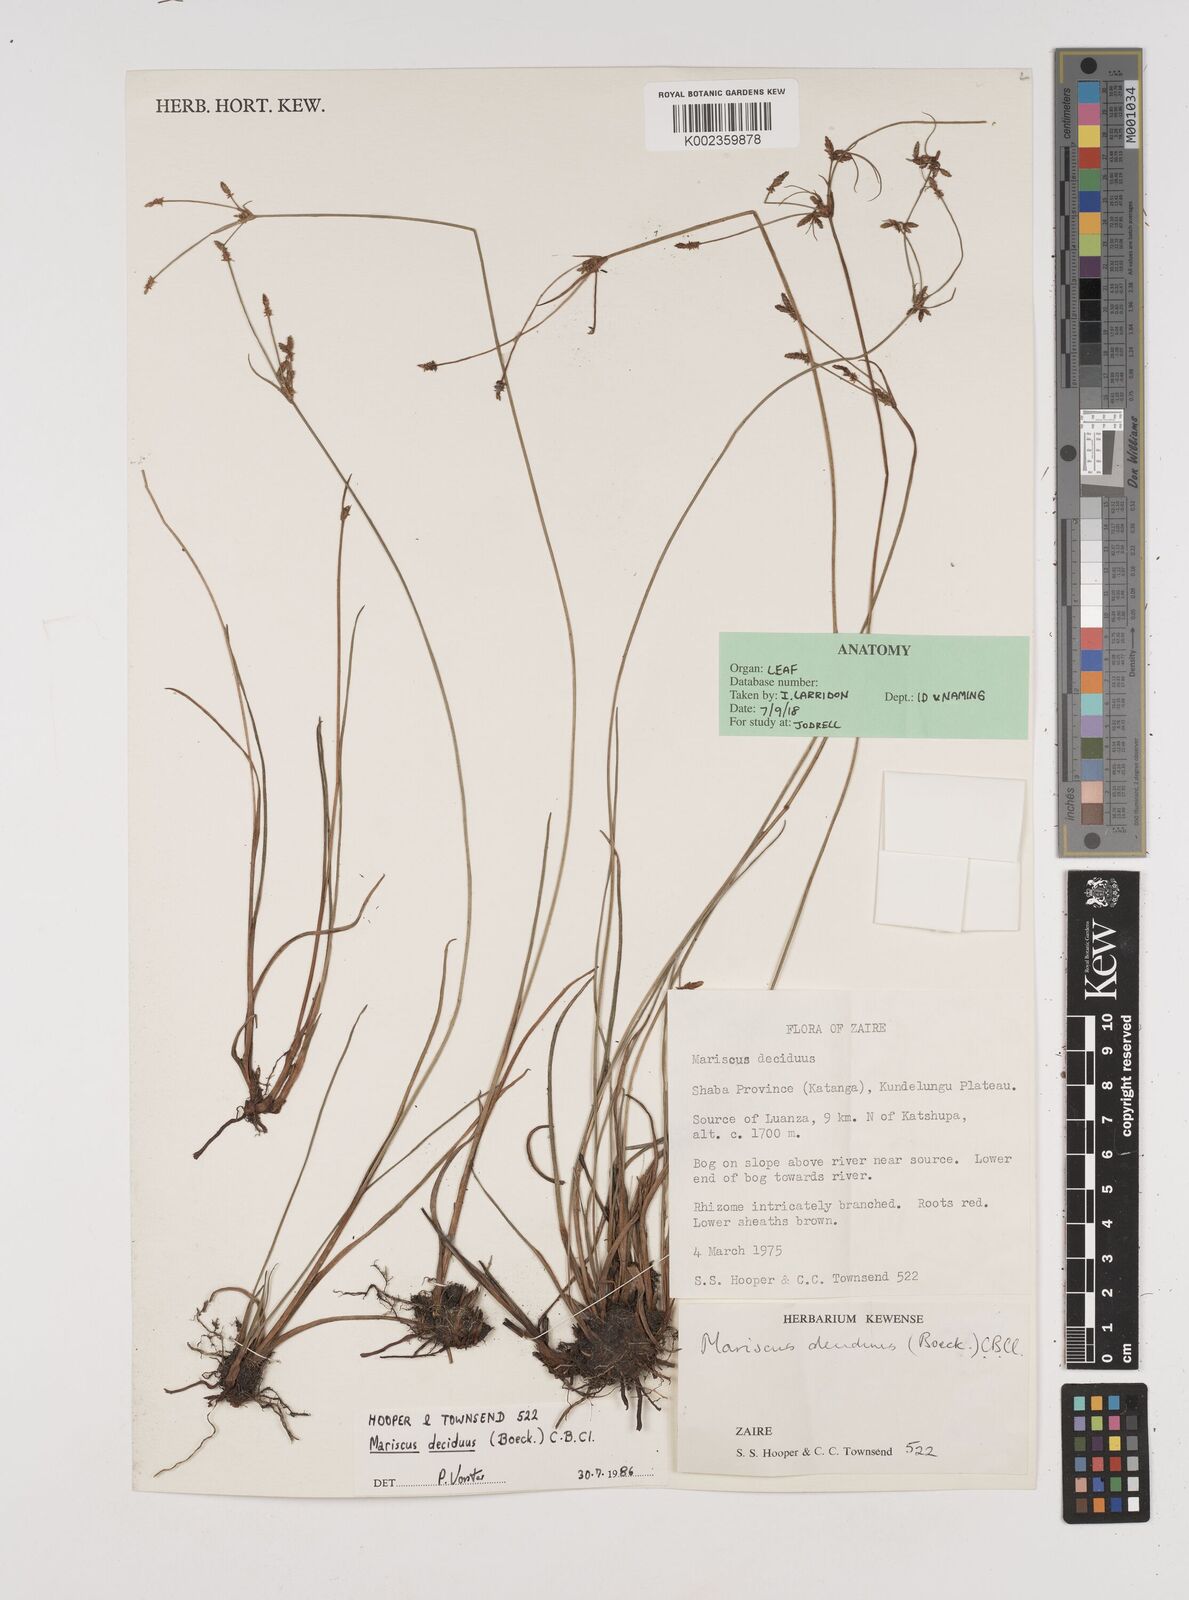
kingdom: Plantae
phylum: Tracheophyta
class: Liliopsida
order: Poales
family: Cyperaceae
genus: Cyperus
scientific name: Cyperus deciduus
